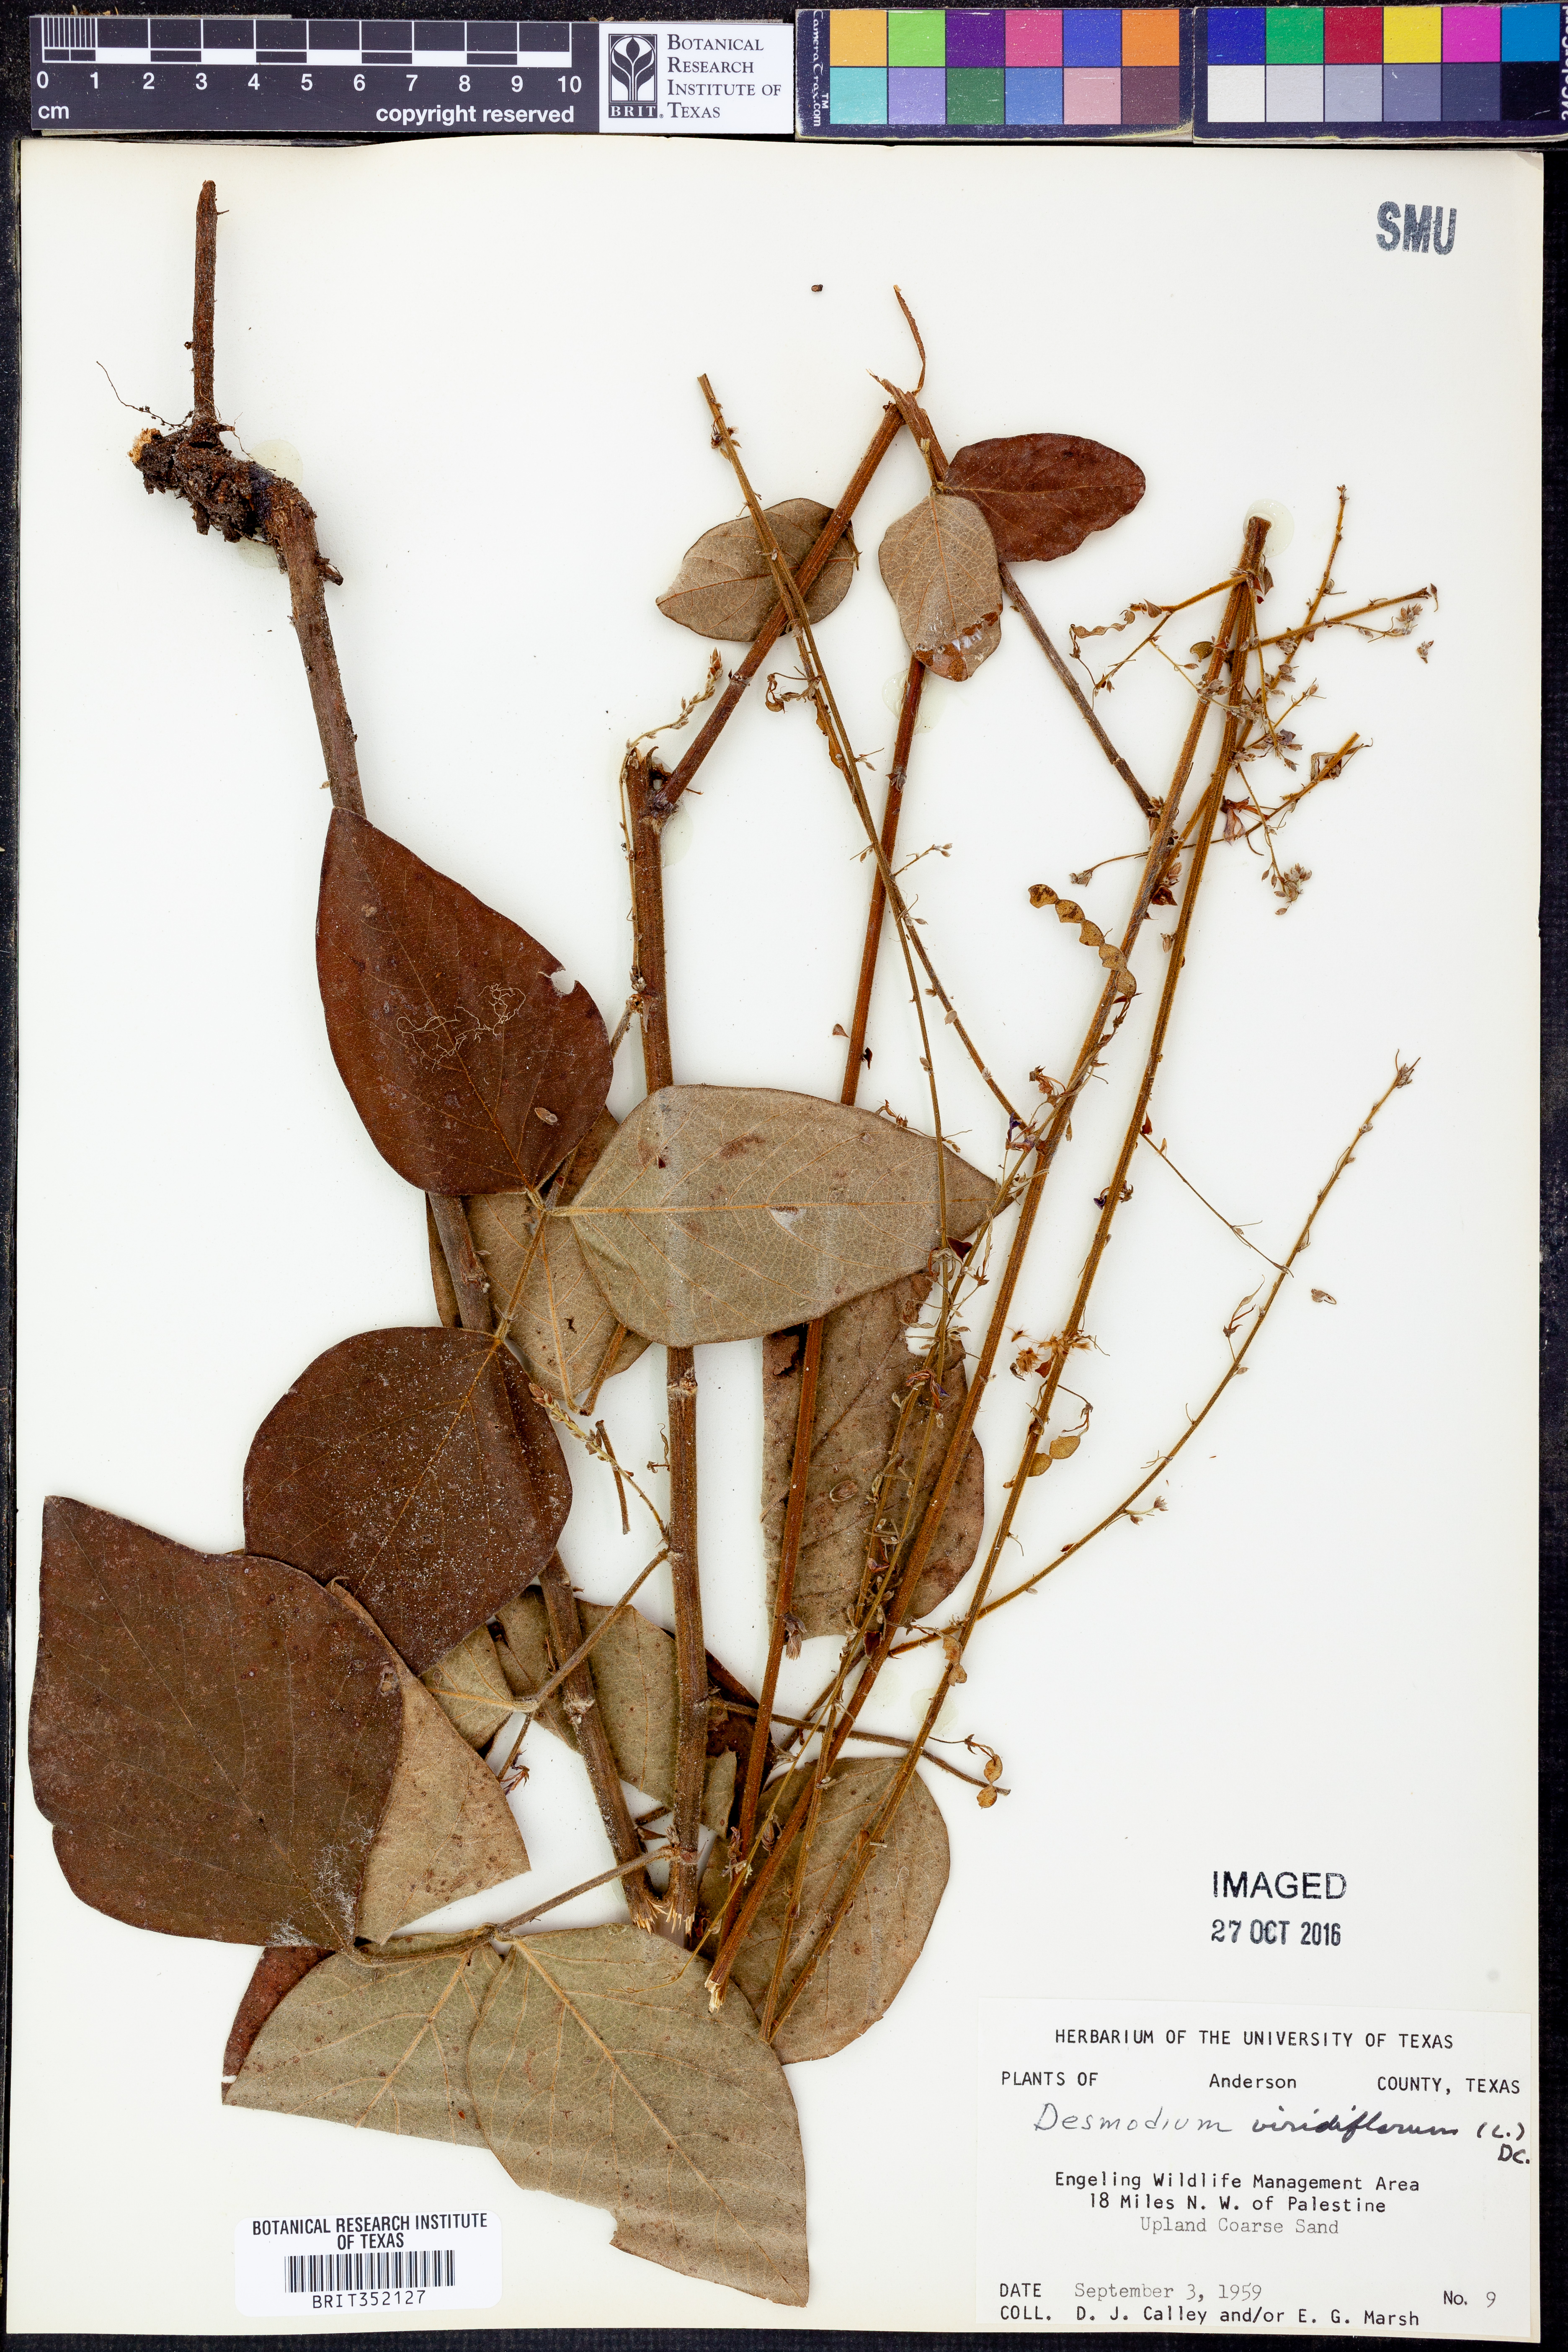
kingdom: Plantae
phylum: Tracheophyta
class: Magnoliopsida
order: Fabales
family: Fabaceae
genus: Desmodium
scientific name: Desmodium viridiflorum
